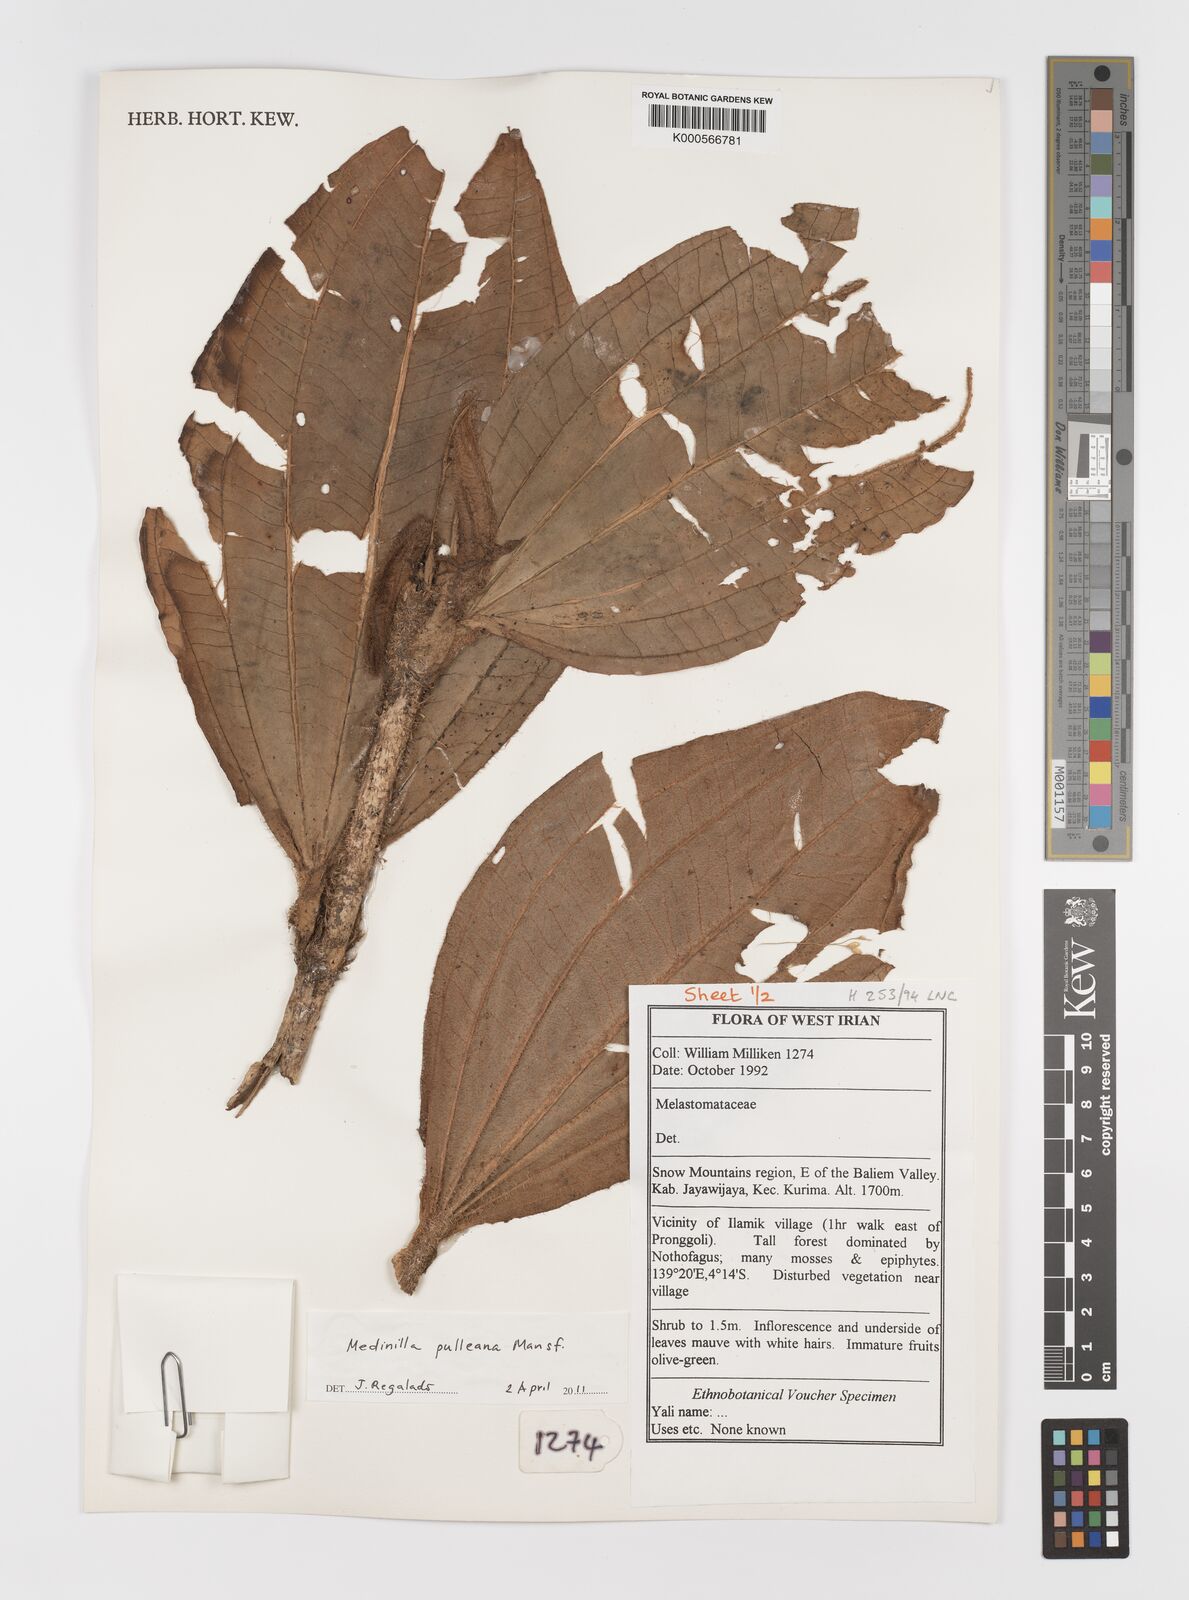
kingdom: Plantae
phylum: Tracheophyta
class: Magnoliopsida
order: Myrtales
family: Melastomataceae
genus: Medinilla
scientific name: Medinilla pulleana
